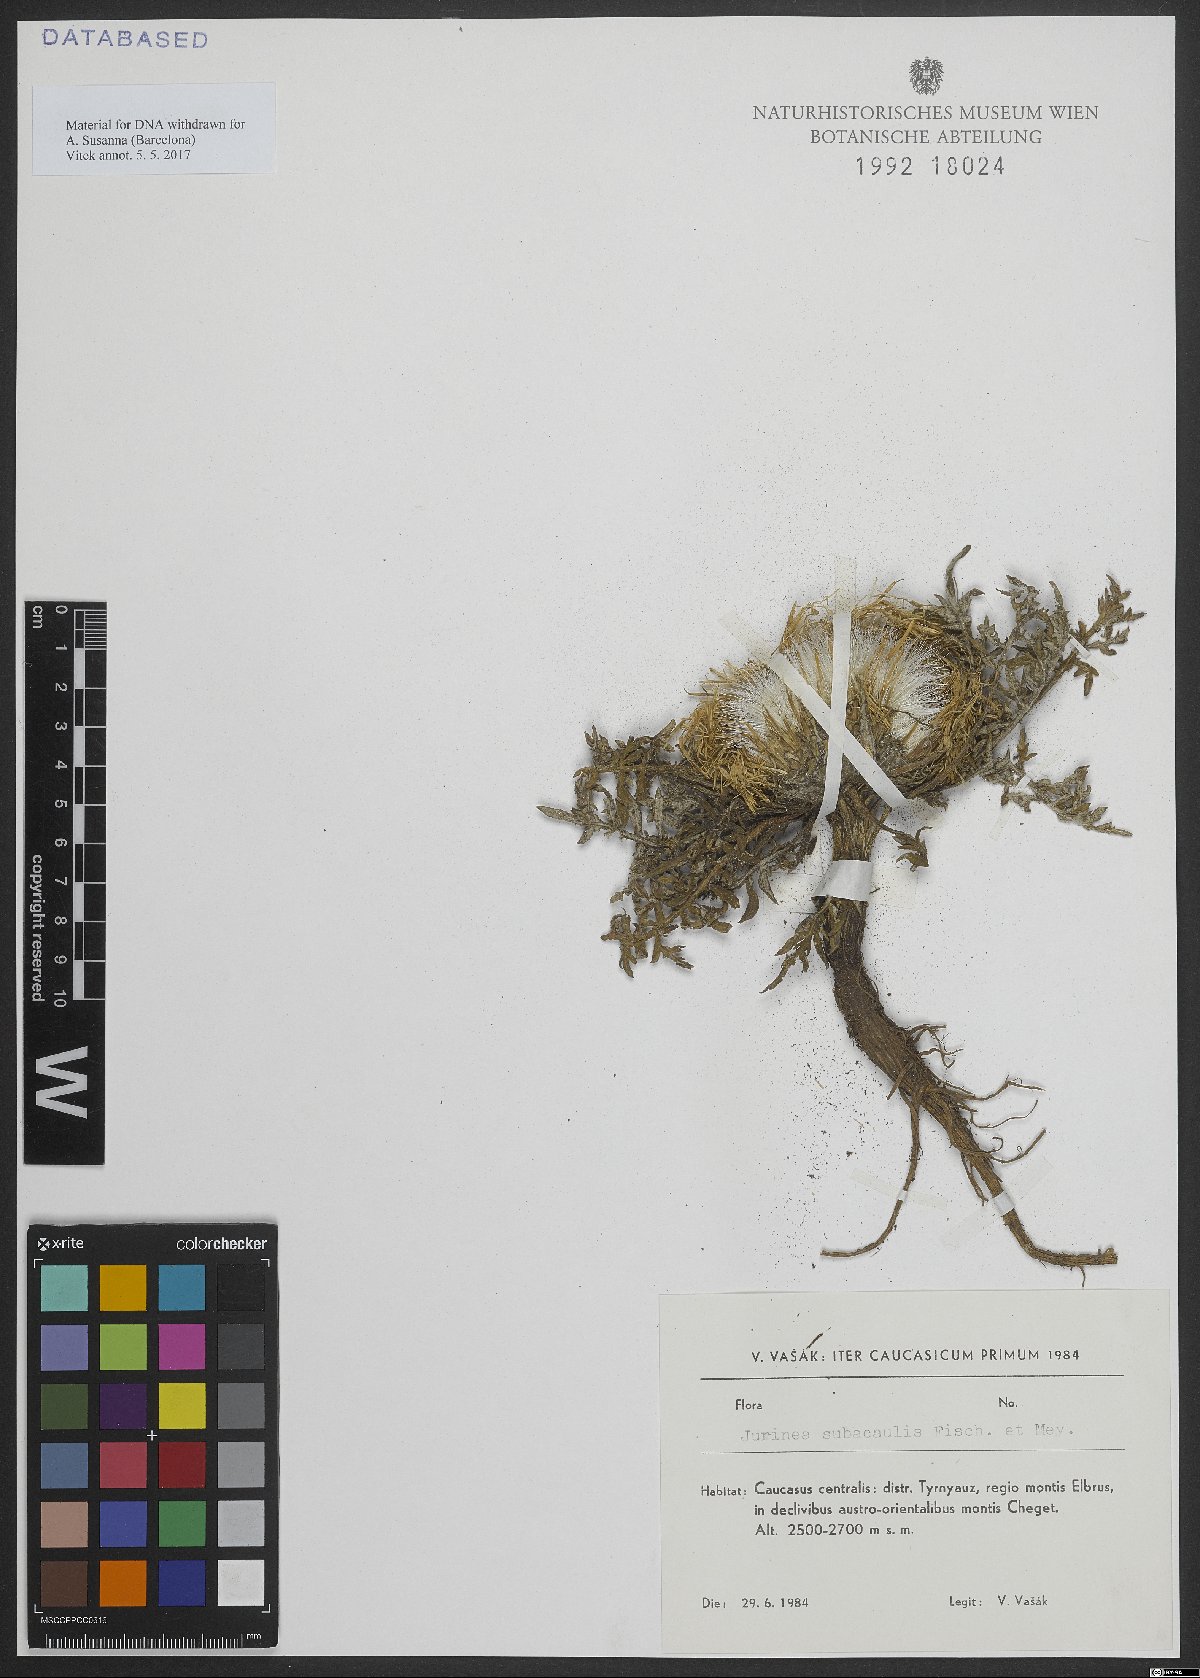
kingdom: Plantae
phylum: Tracheophyta
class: Magnoliopsida
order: Asterales
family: Asteraceae
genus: Jurinea
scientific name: Jurinea moschus
